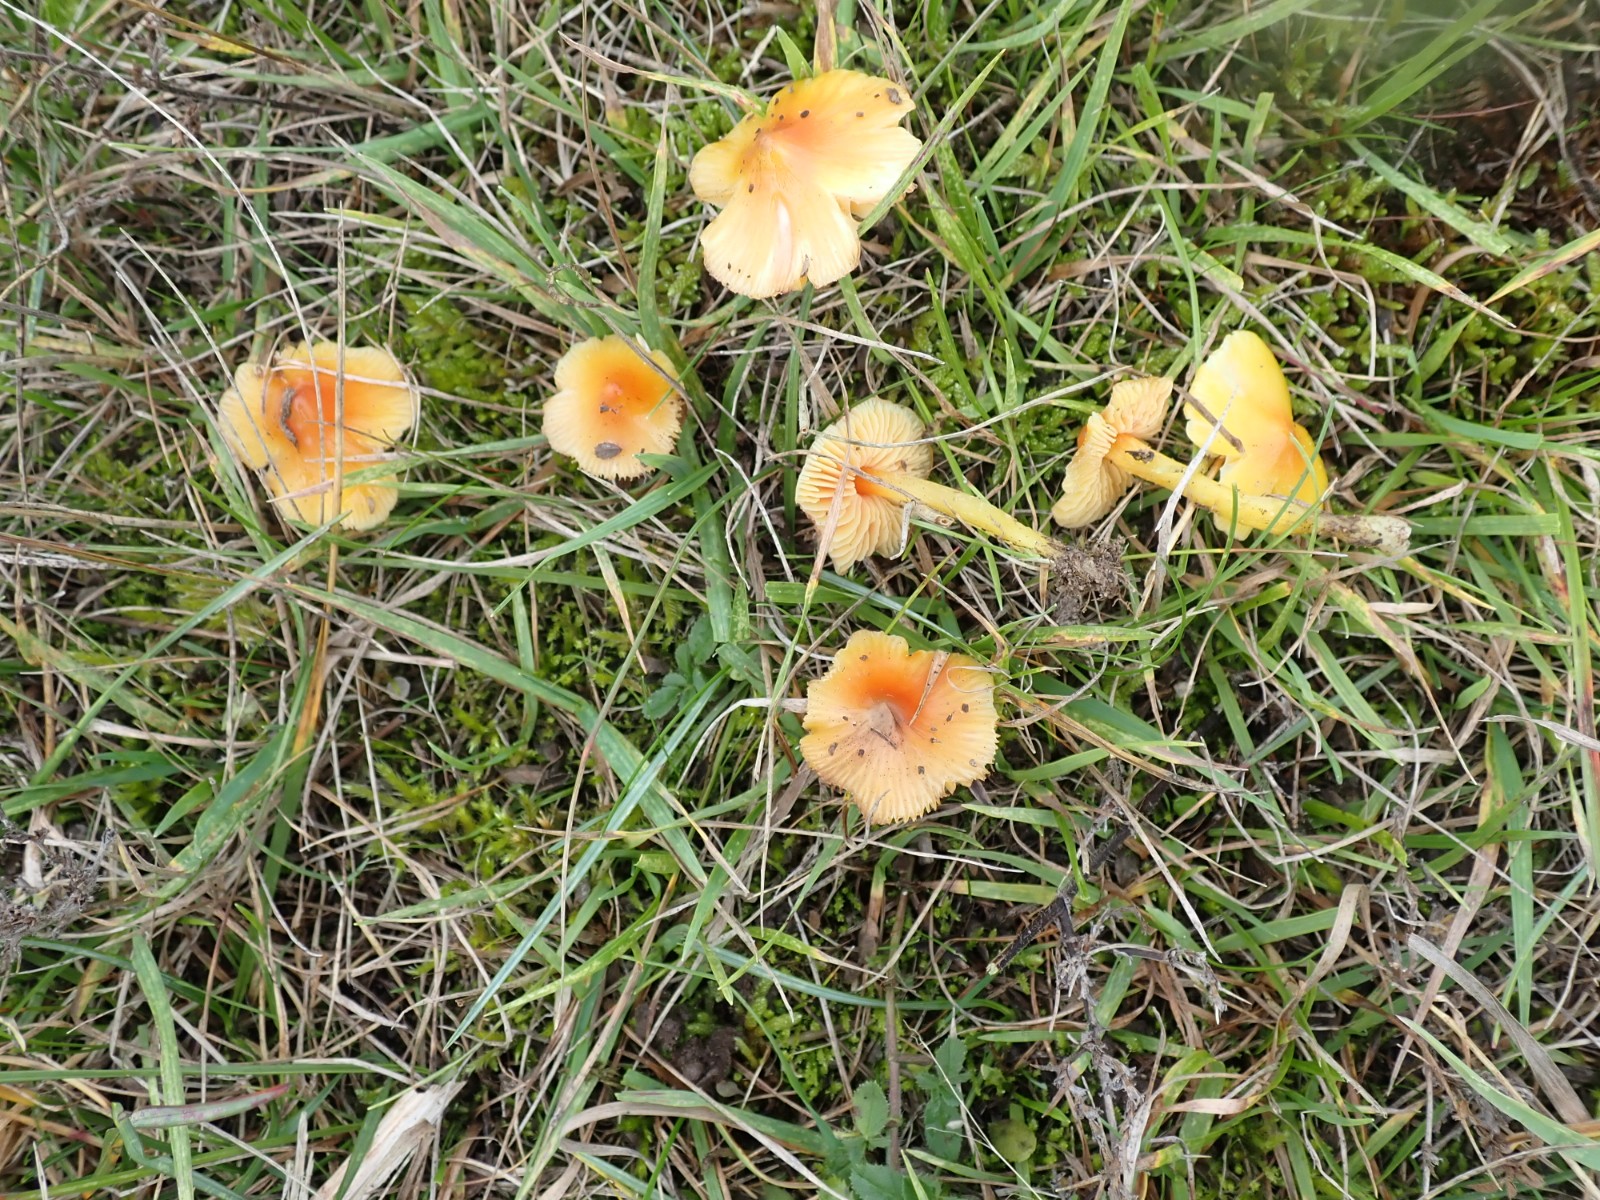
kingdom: Fungi
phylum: Basidiomycota
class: Agaricomycetes
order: Agaricales
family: Hygrophoraceae
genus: Hygrocybe
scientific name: Hygrocybe acutoconica
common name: Konrads vokshat
